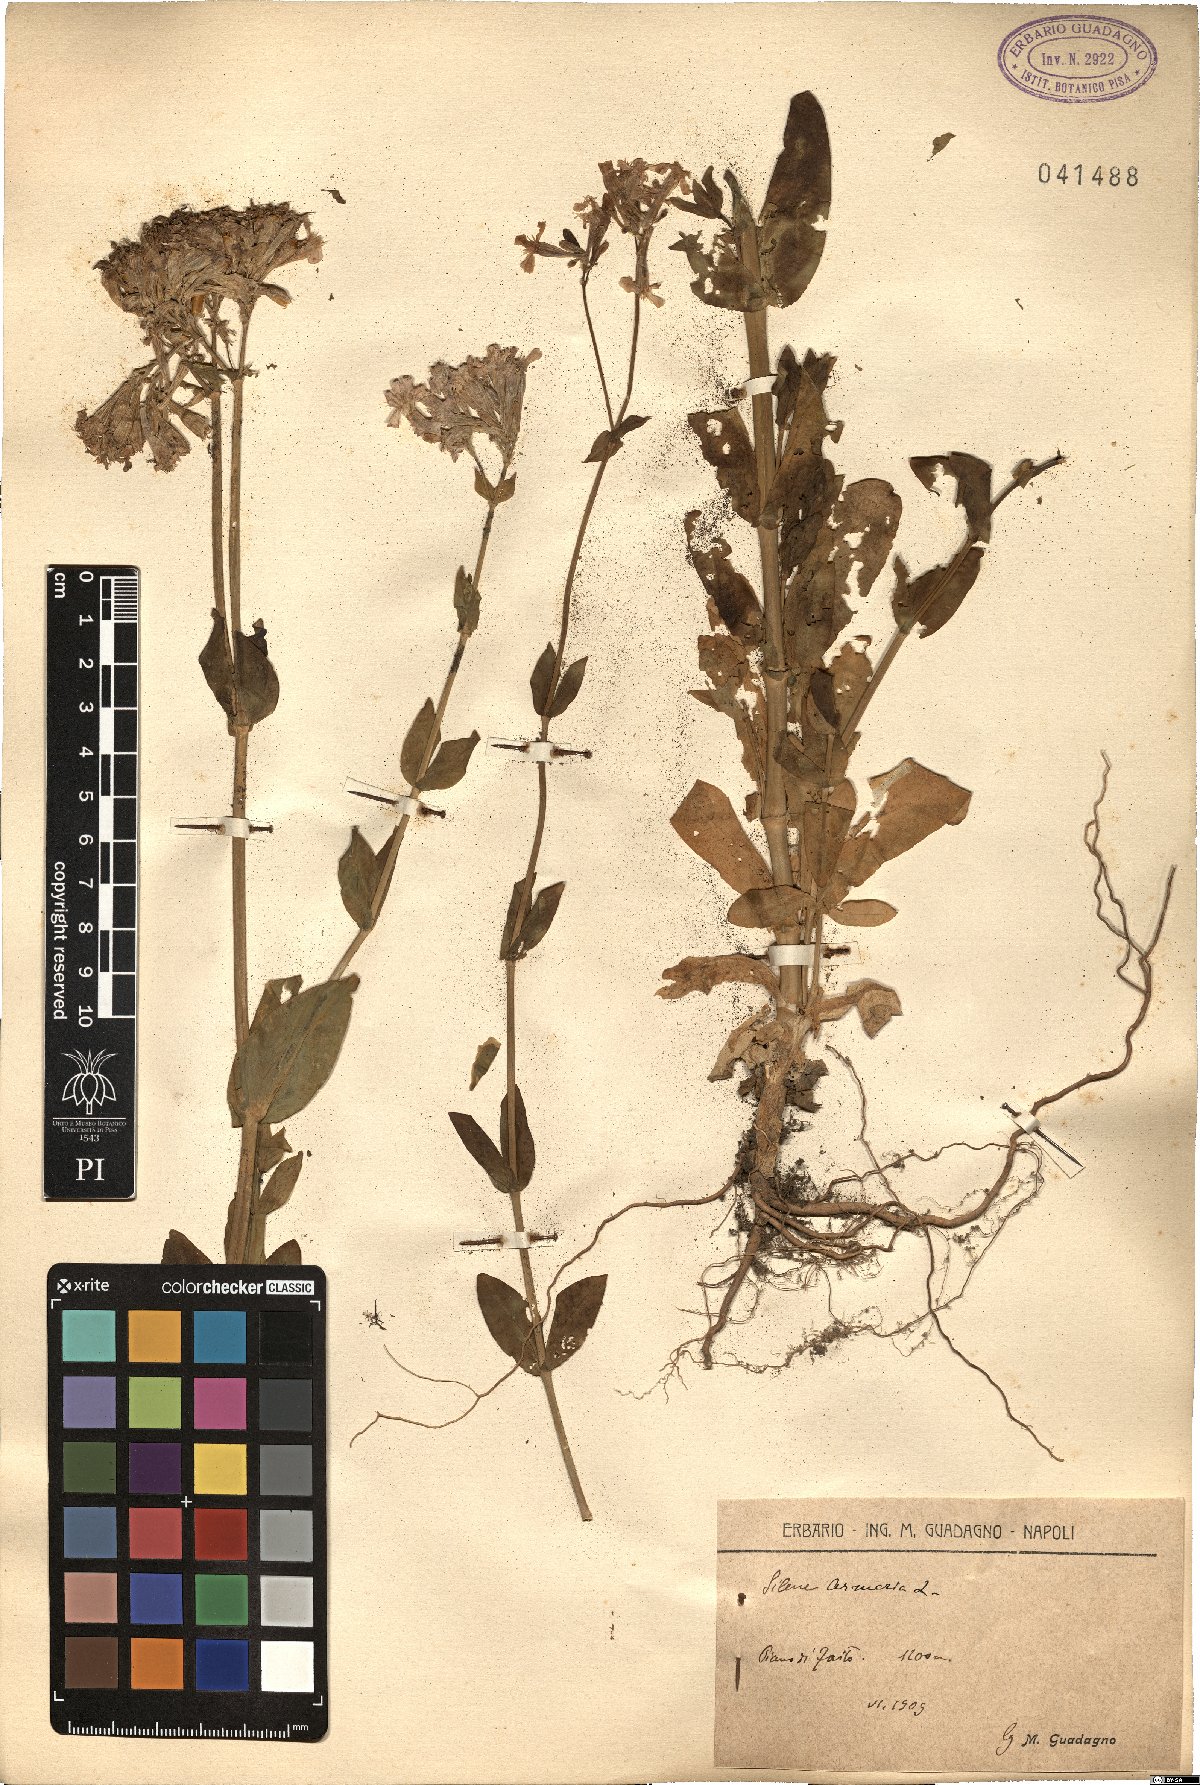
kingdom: Plantae
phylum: Tracheophyta
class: Magnoliopsida
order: Caryophyllales
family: Caryophyllaceae
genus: Atocion
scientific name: Atocion armeria
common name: Sweet william catchfly
